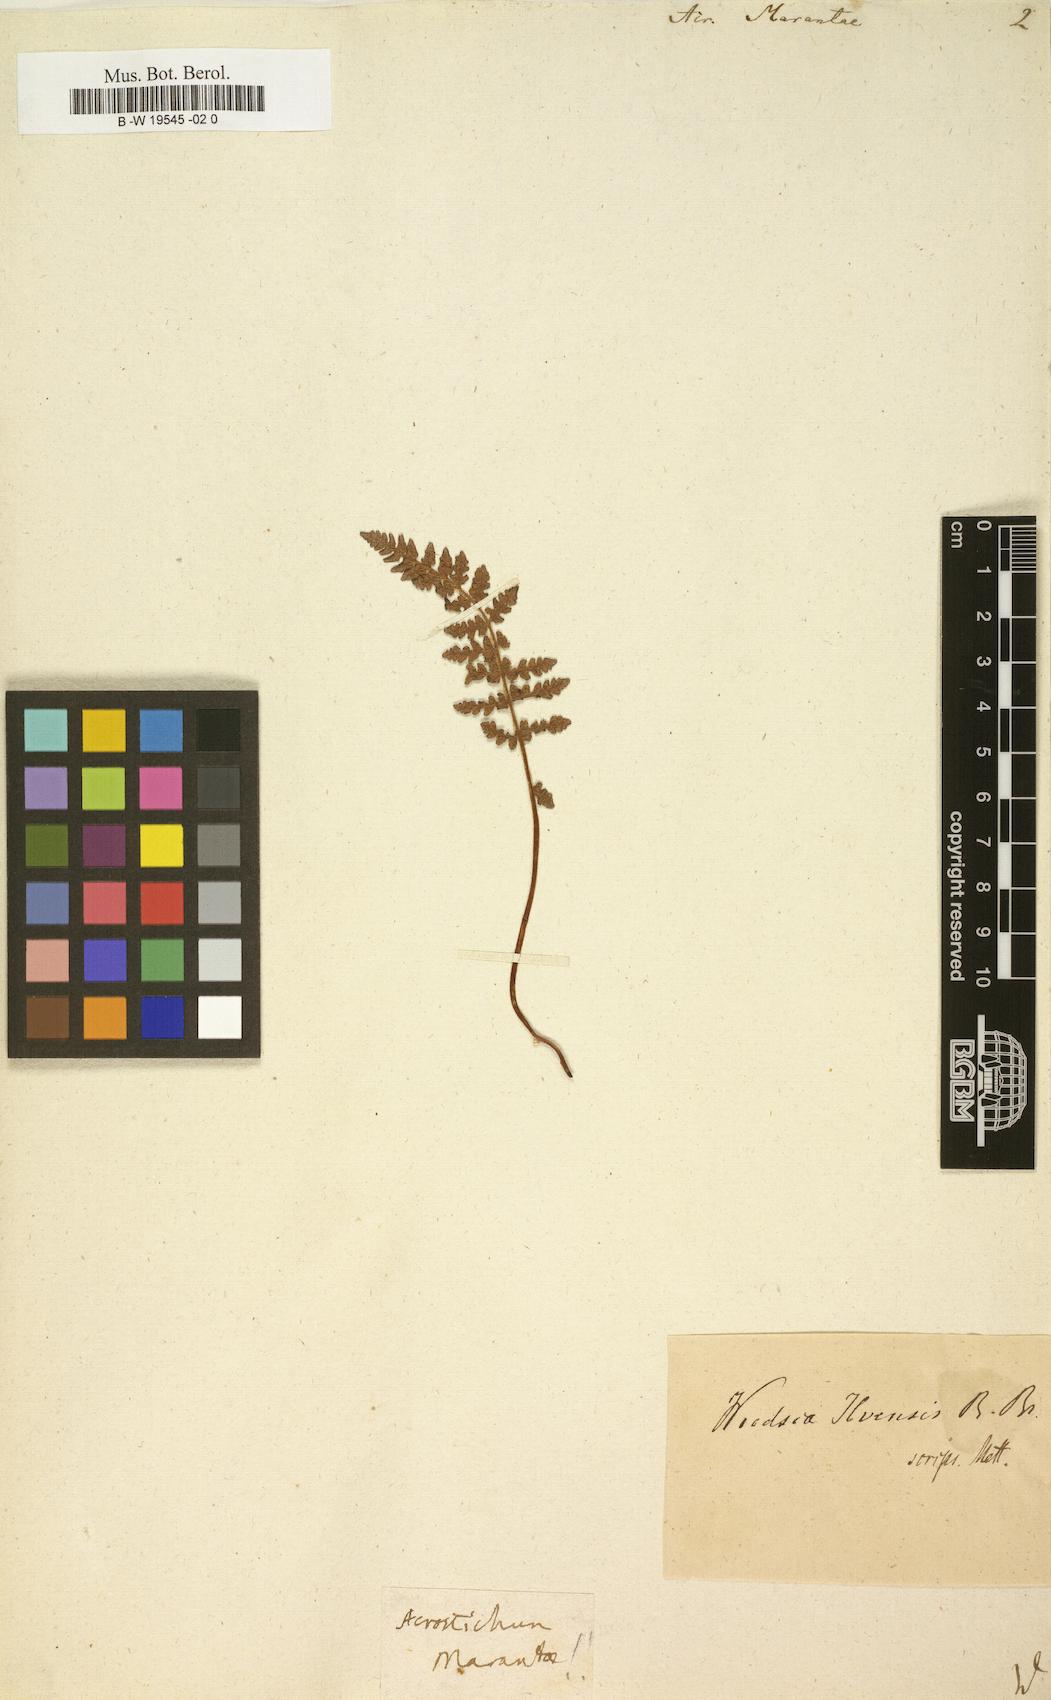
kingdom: Plantae
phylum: Tracheophyta
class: Polypodiopsida
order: Polypodiales
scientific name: Polypodiales
